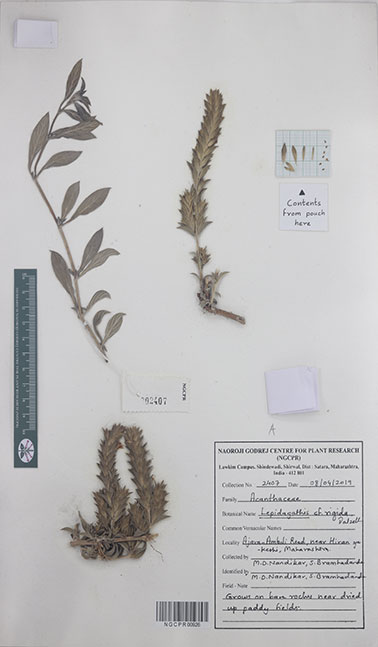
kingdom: Plantae
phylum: Tracheophyta
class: Magnoliopsida
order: Lamiales
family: Acanthaceae
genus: Lepidagathis
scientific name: Lepidagathis rigida
